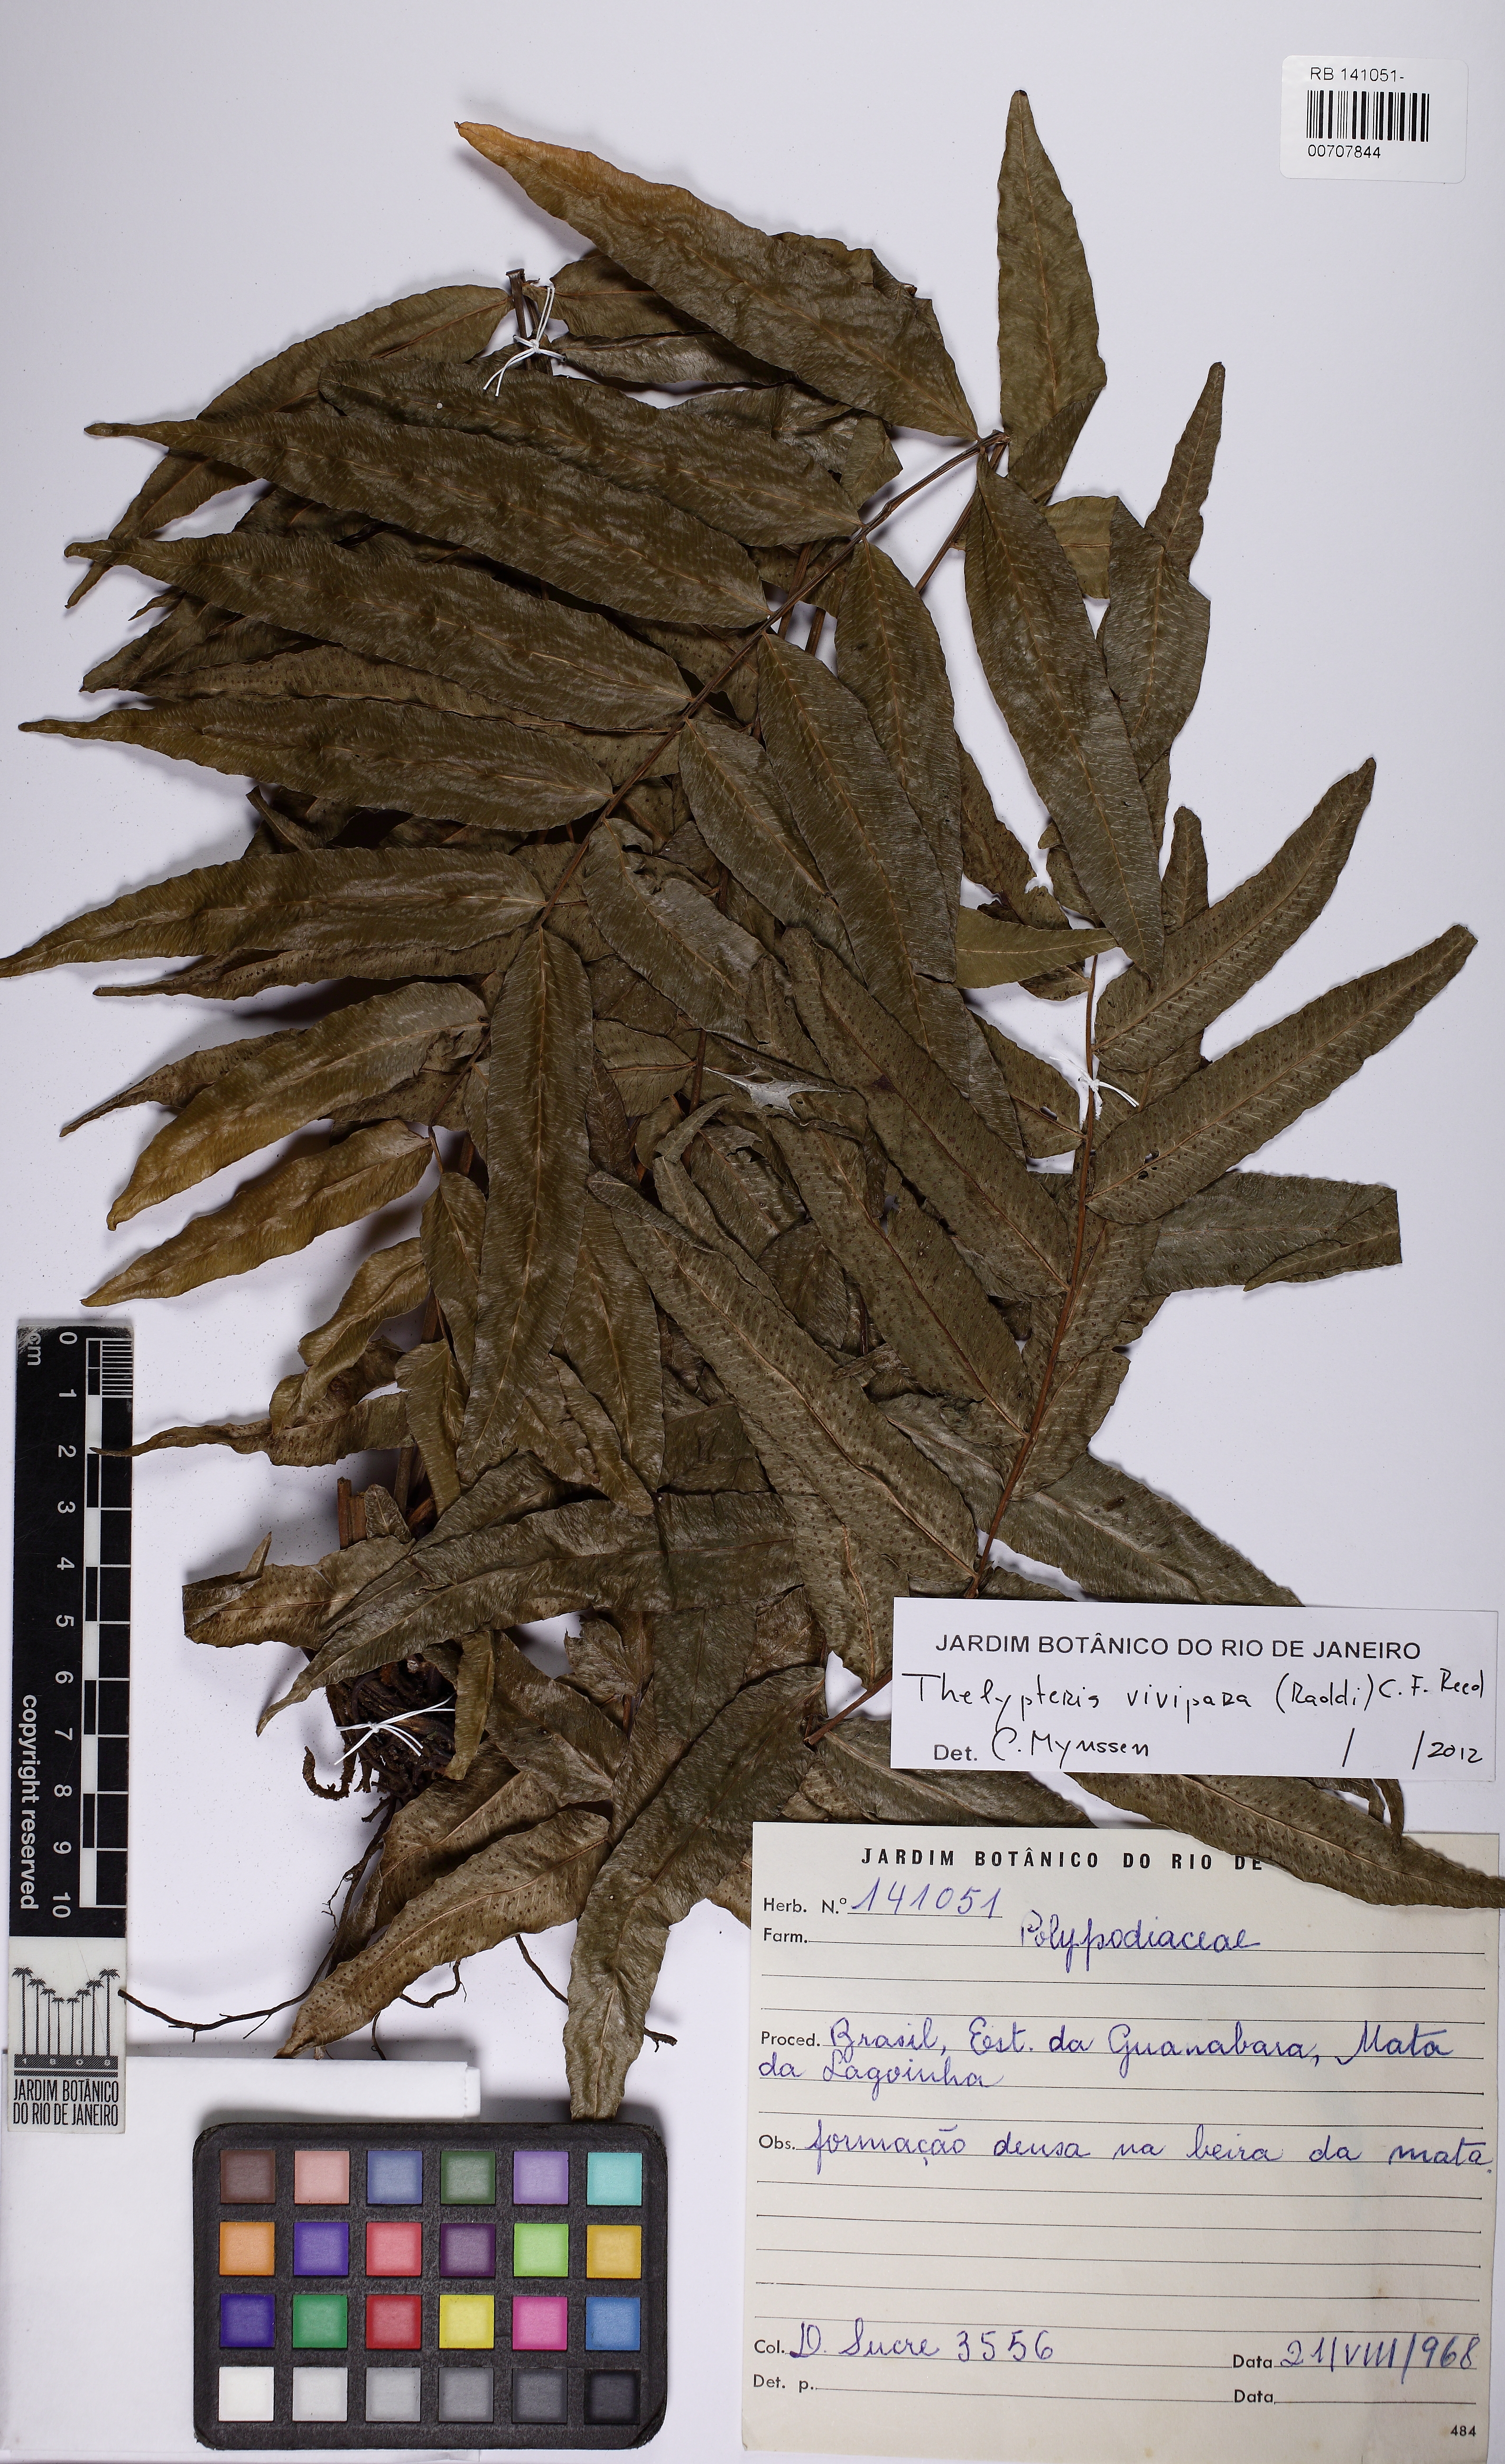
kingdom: Plantae
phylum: Tracheophyta
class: Polypodiopsida
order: Polypodiales
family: Thelypteridaceae
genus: Goniopteris
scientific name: Goniopteris vivipara
